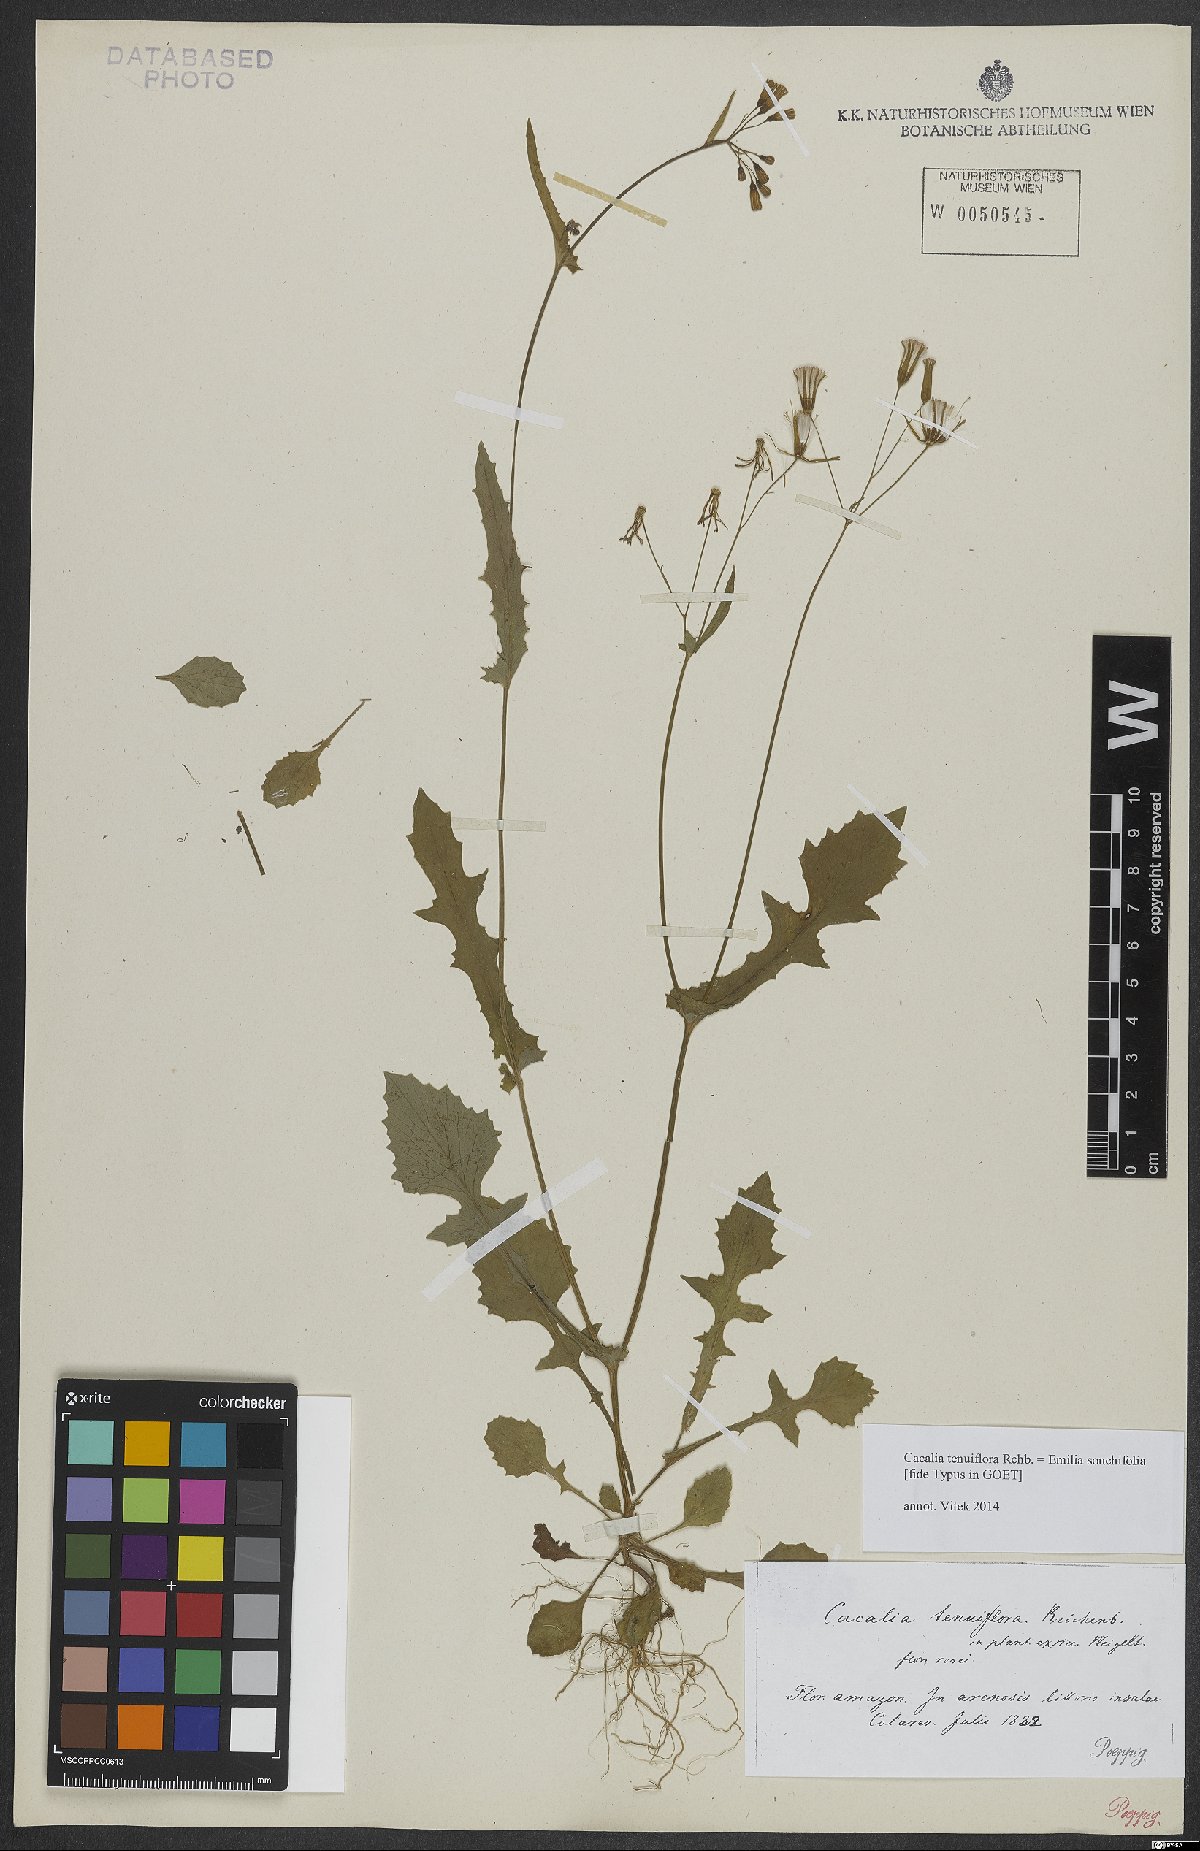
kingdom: Plantae
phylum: Tracheophyta
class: Magnoliopsida
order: Asterales
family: Asteraceae
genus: Emilia
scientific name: Emilia sonchifolia
